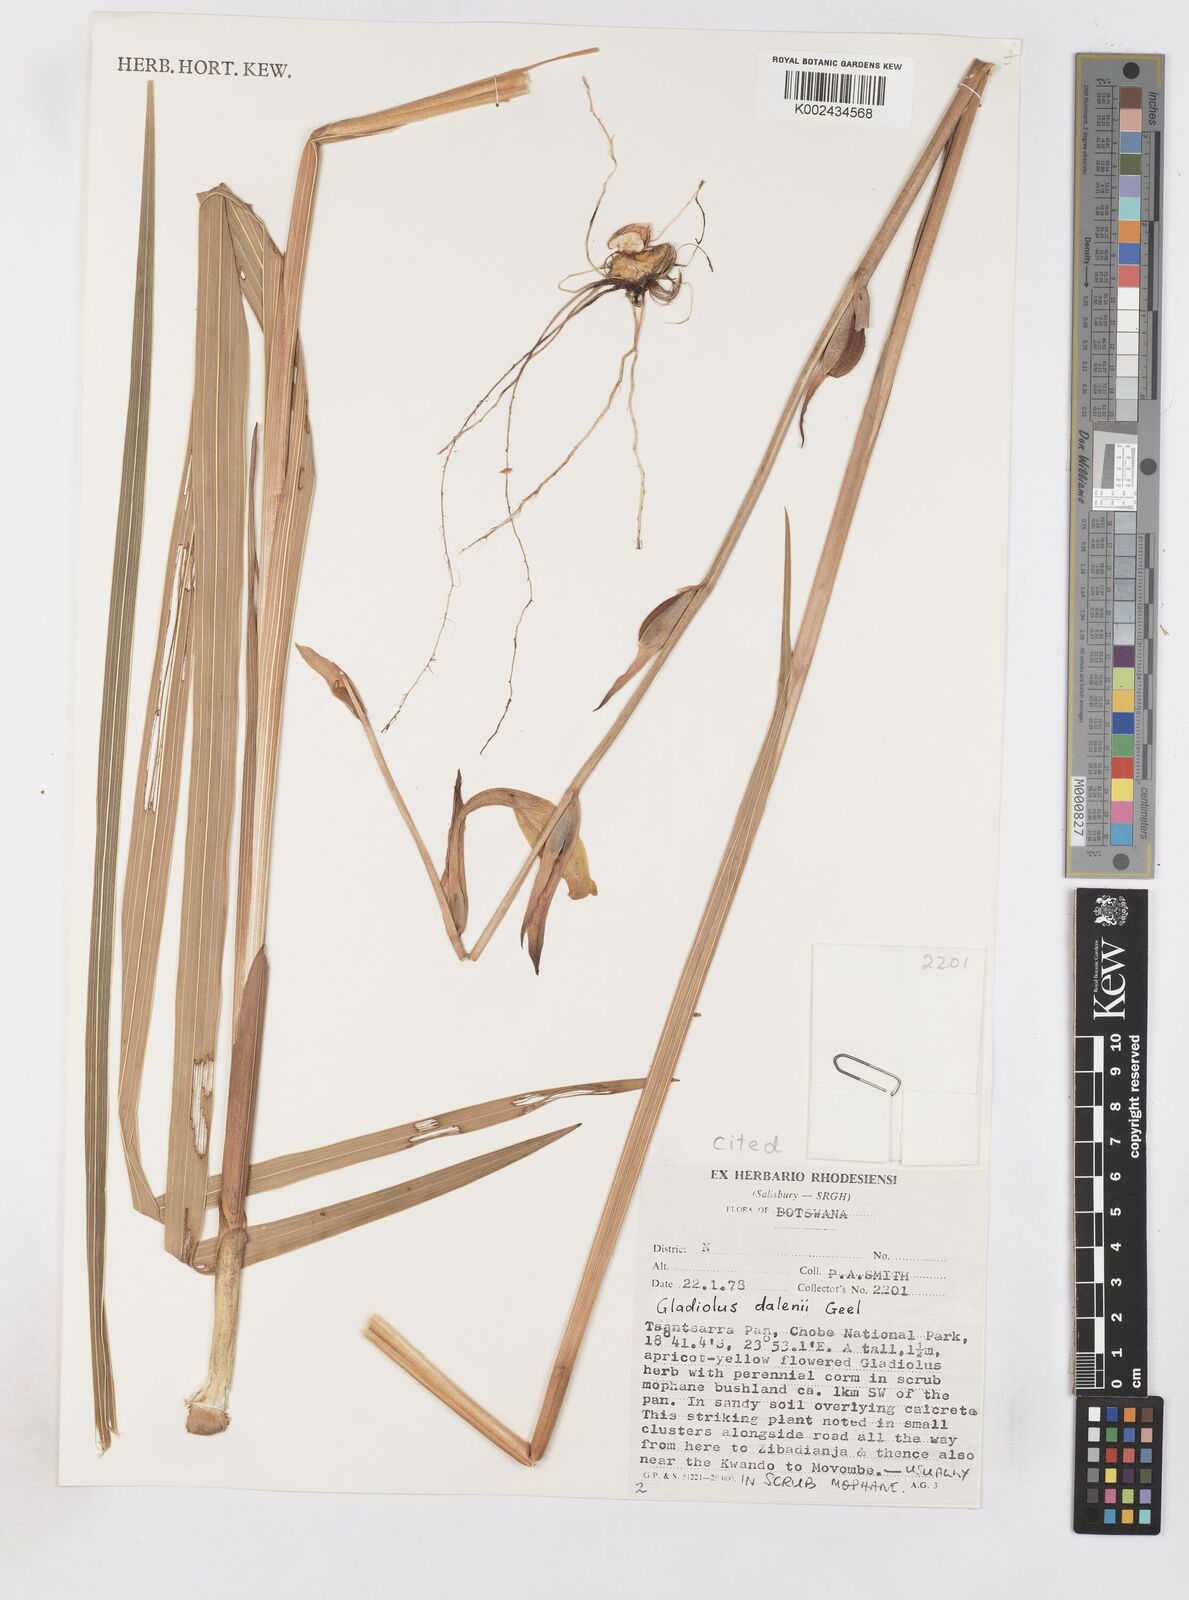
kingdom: Plantae
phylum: Tracheophyta
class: Liliopsida
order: Asparagales
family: Iridaceae
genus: Gladiolus
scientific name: Gladiolus dalenii
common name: Cornflag
